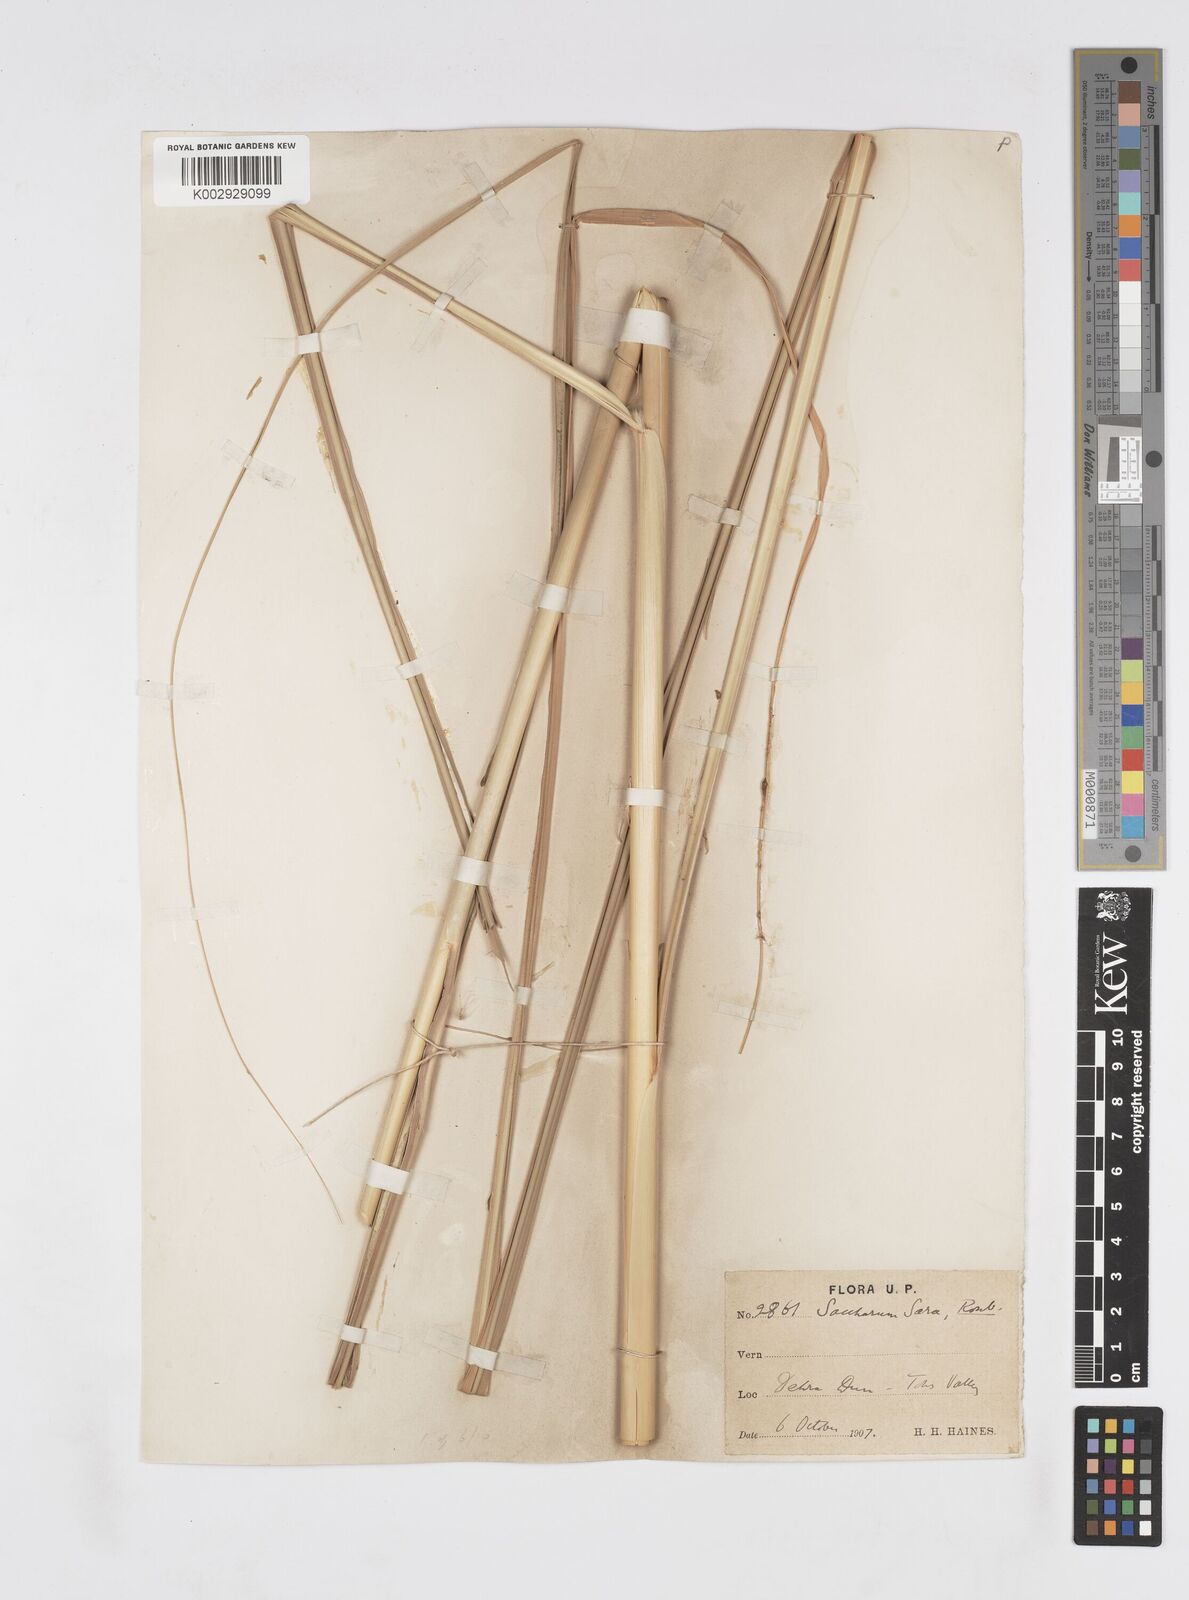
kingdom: Plantae
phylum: Tracheophyta
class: Liliopsida
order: Poales
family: Poaceae
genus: Tripidium
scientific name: Tripidium bengalense
